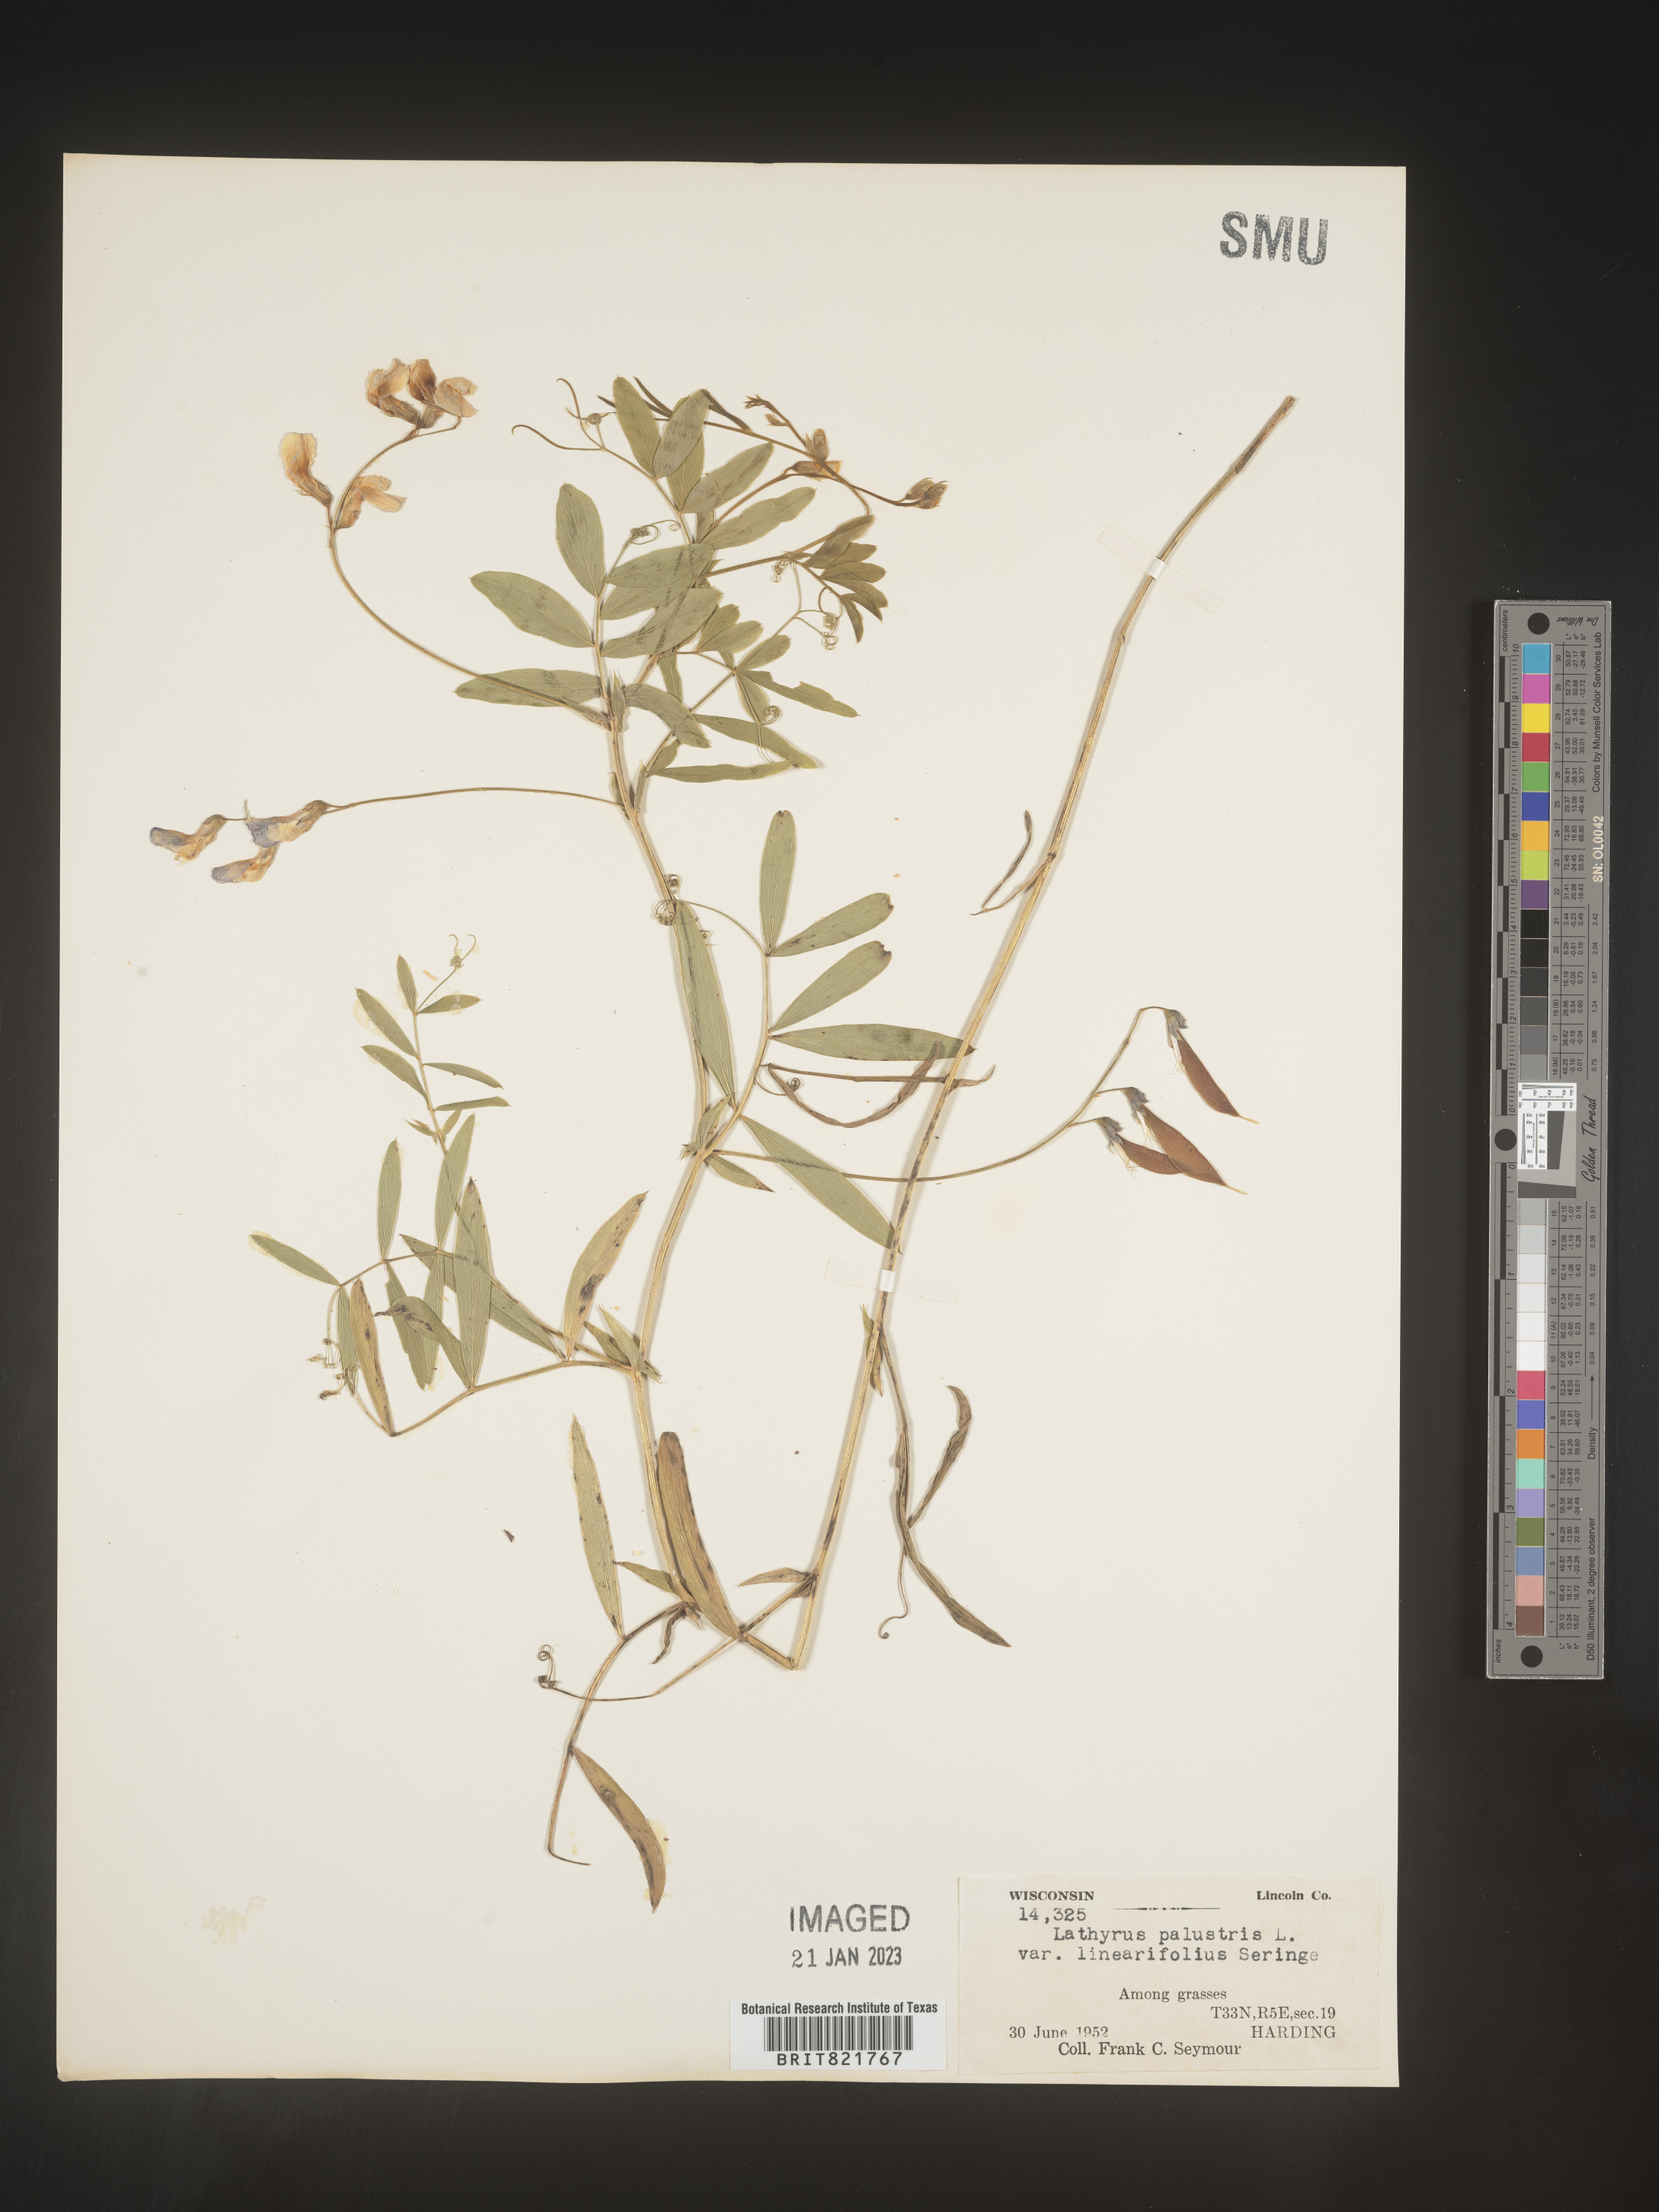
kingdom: Plantae
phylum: Tracheophyta
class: Magnoliopsida
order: Fabales
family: Fabaceae
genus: Lathyrus
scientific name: Lathyrus palustris
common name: Marsh pea
